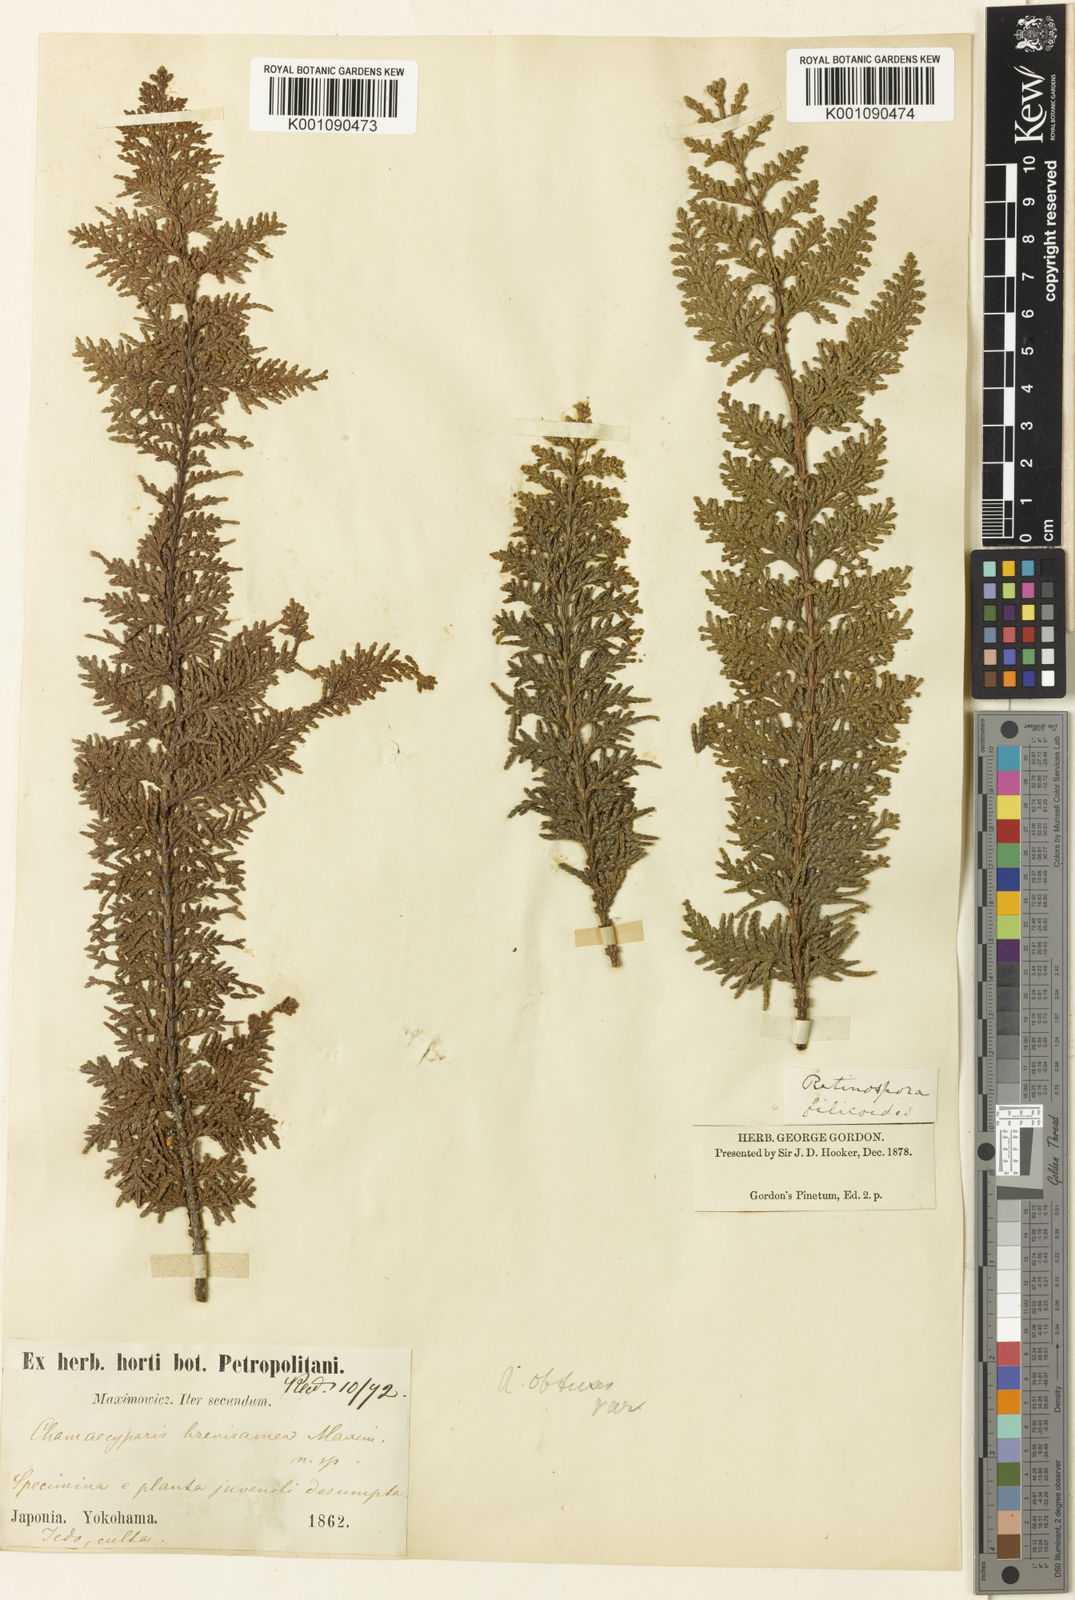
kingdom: Plantae
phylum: Tracheophyta
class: Pinopsida
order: Pinales
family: Cupressaceae
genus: Chamaecyparis
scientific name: Chamaecyparis obtusa
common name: Hinoki false cypress
